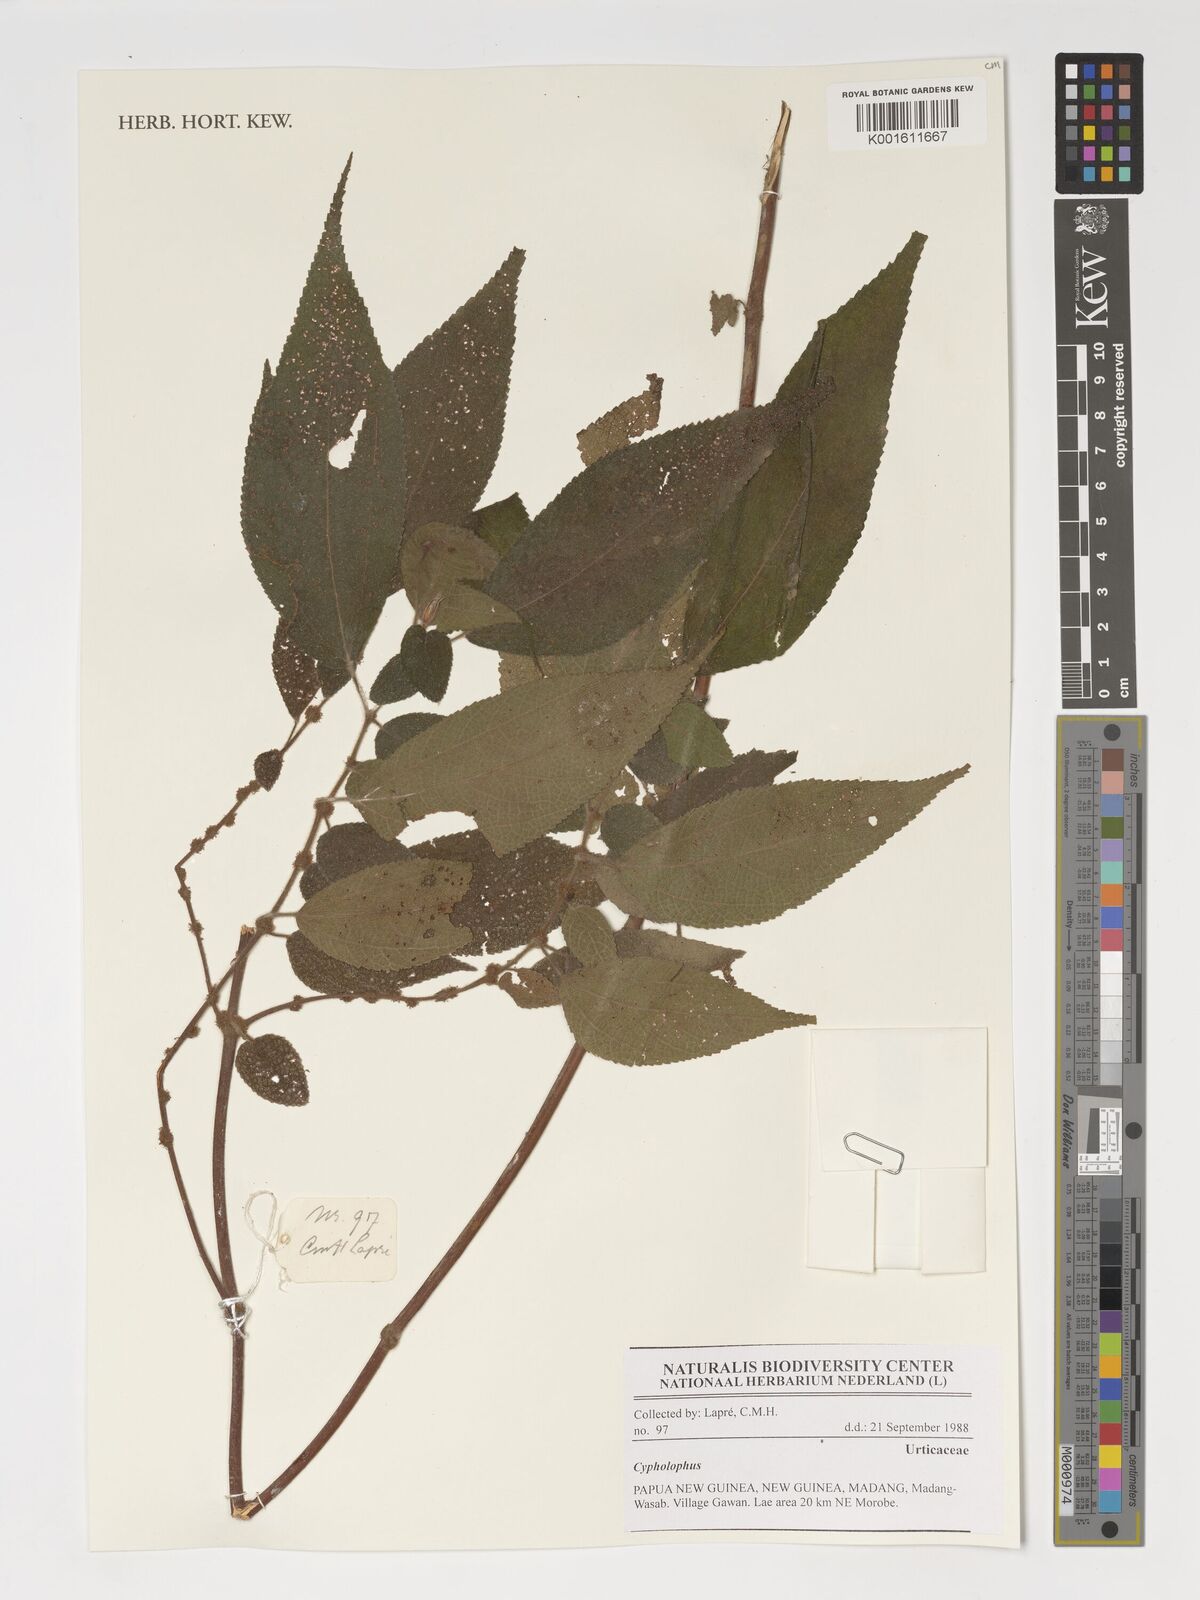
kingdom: Plantae
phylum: Tracheophyta
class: Magnoliopsida
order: Rosales
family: Urticaceae
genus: Cypholophus
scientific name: Cypholophus
